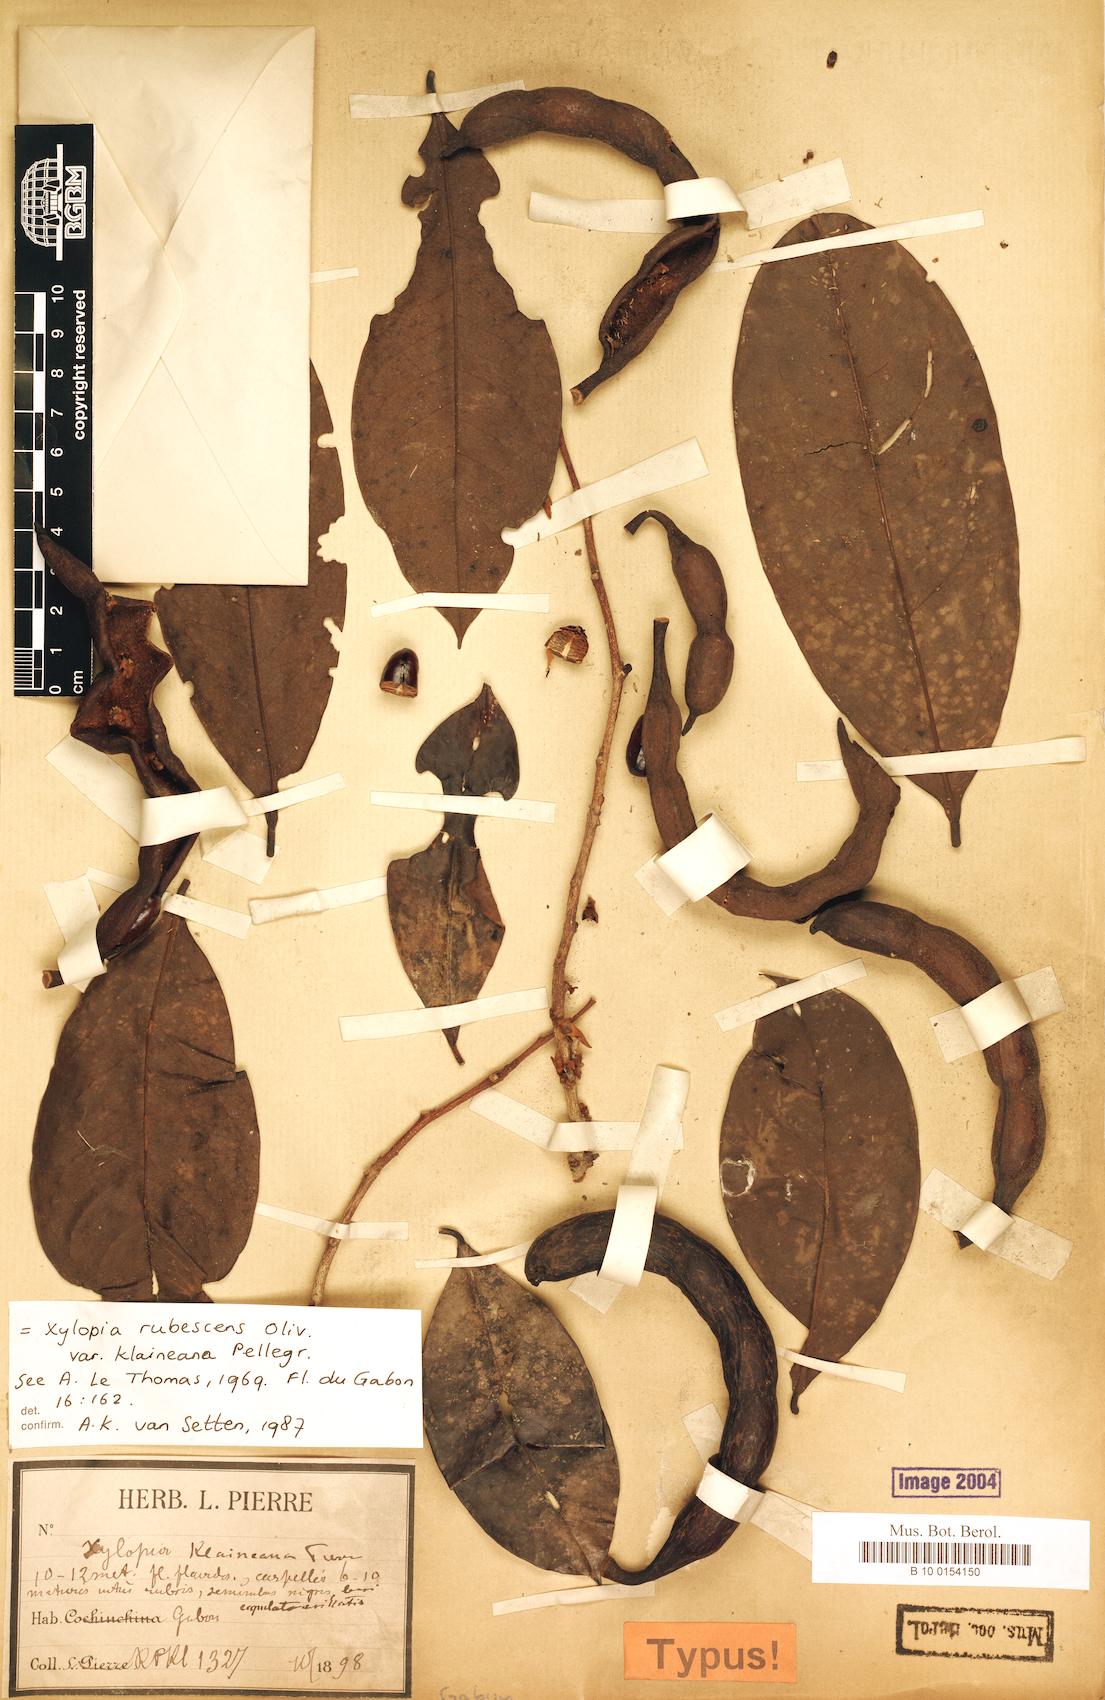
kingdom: Plantae
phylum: Tracheophyta
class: Magnoliopsida
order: Magnoliales
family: Annonaceae
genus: Xylopia
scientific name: Xylopia rubescens
